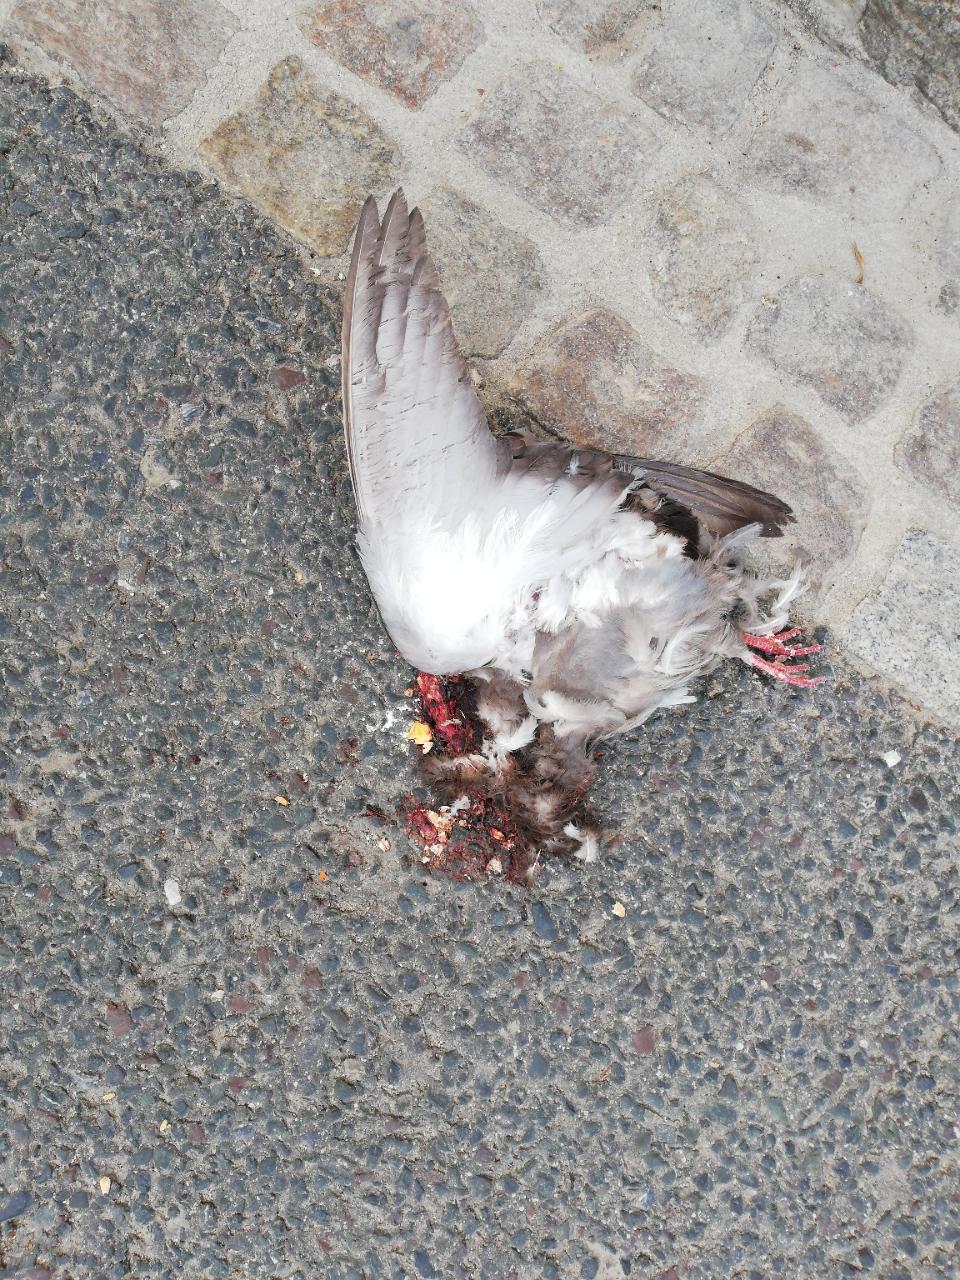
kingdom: Animalia
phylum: Chordata
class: Aves
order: Columbiformes
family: Columbidae
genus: Columba
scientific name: Columba livia
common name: Rock pigeon
